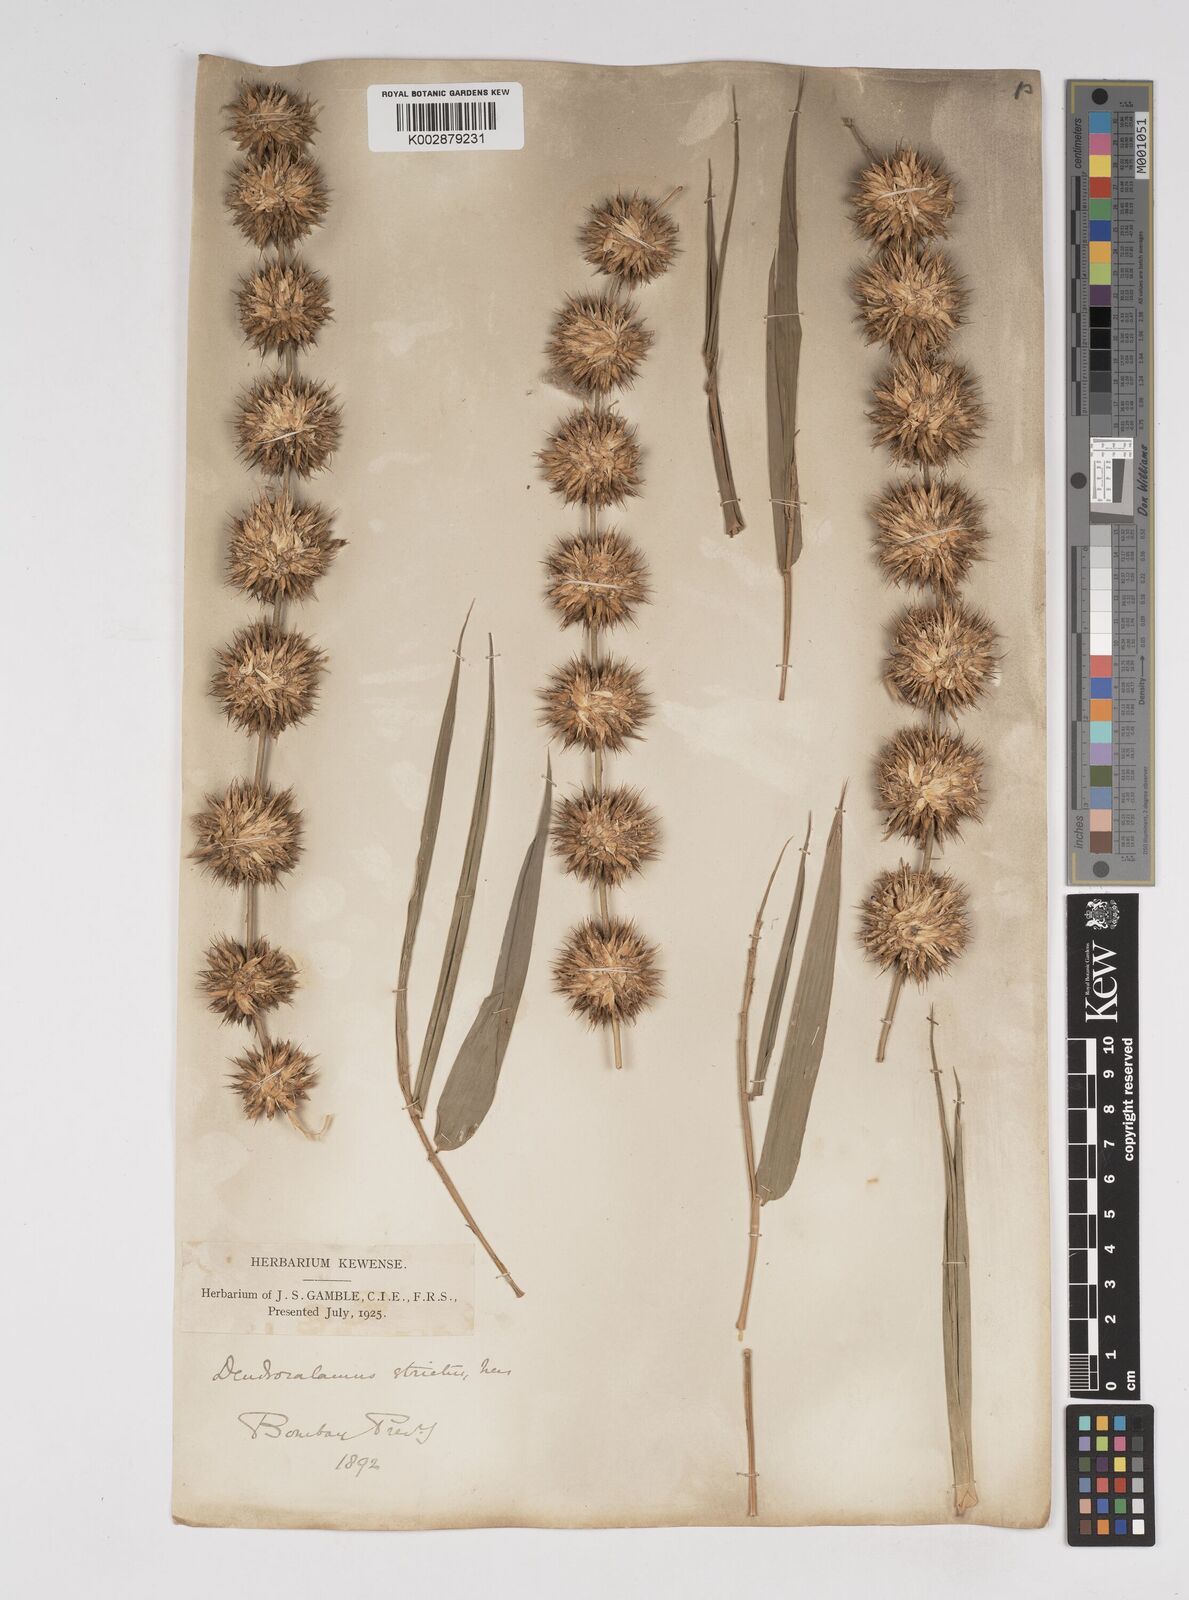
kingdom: Plantae
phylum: Tracheophyta
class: Liliopsida
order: Poales
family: Poaceae
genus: Dendrocalamus
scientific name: Dendrocalamus strictus
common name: Male bamboo
